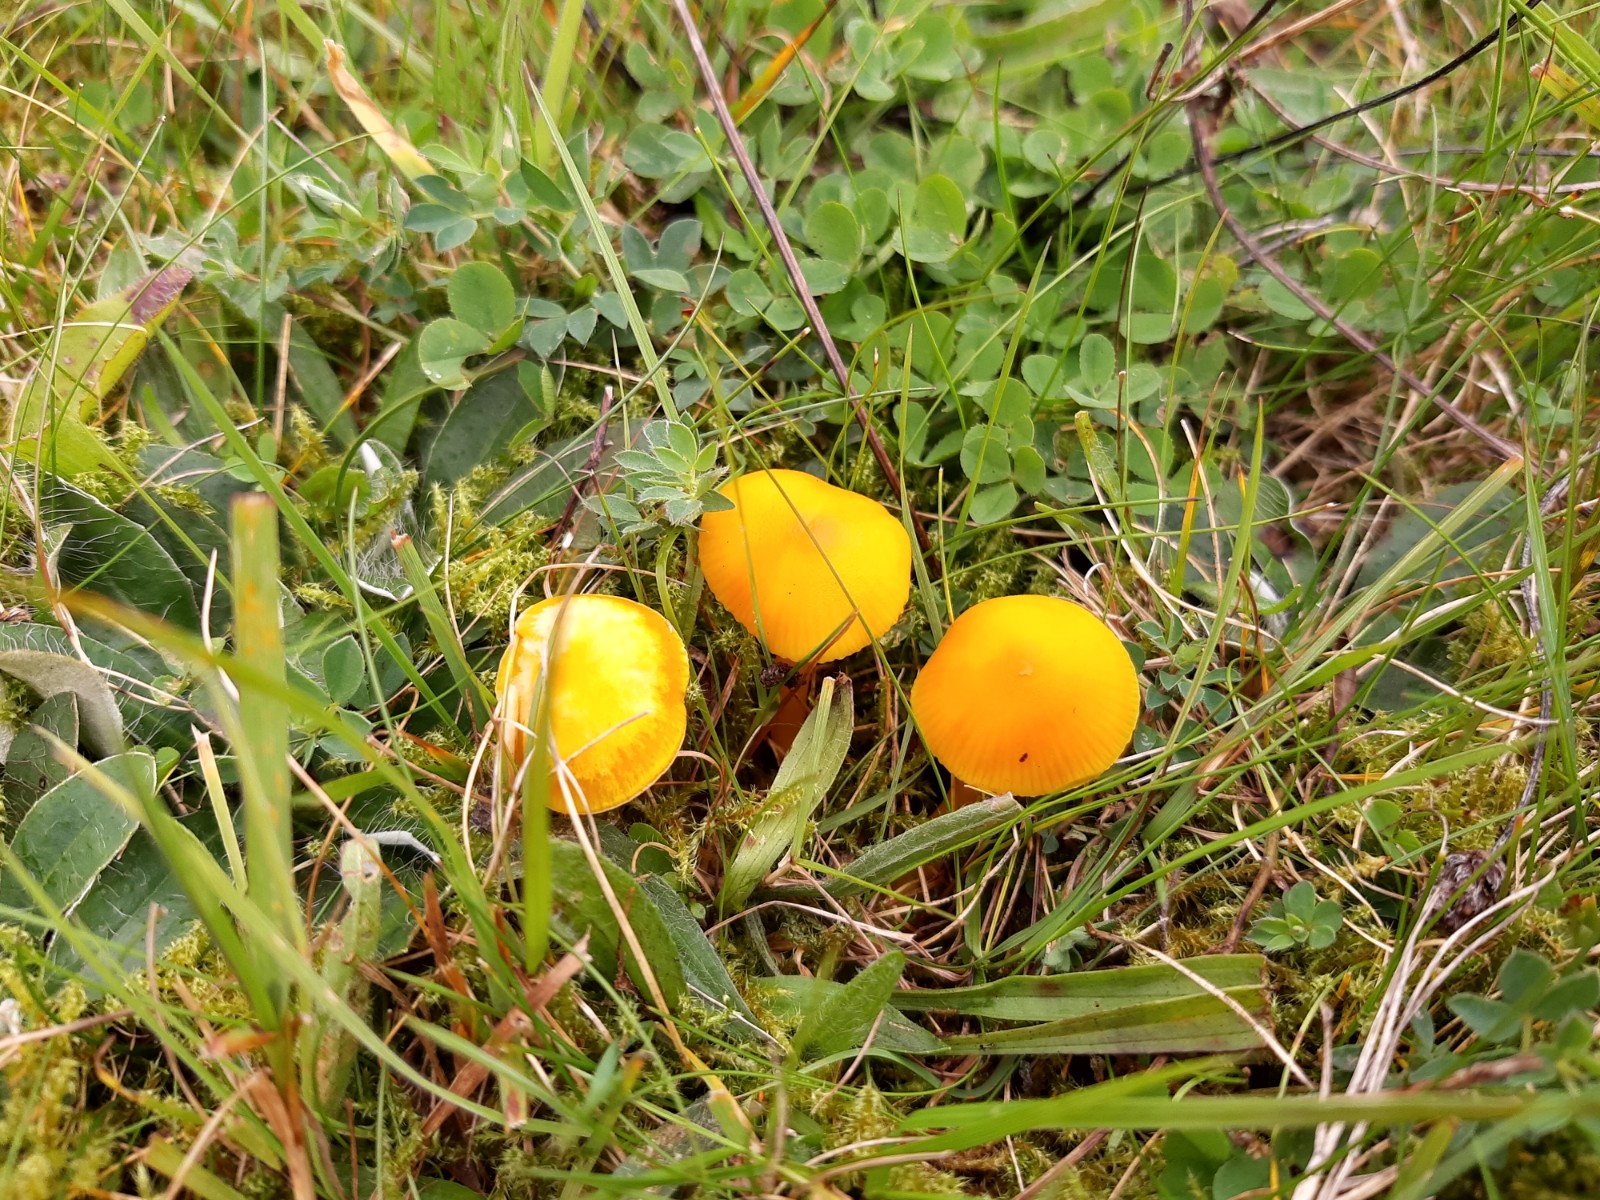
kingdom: Fungi
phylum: Basidiomycota
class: Agaricomycetes
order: Agaricales
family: Hygrophoraceae
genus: Hygrocybe
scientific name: Hygrocybe ceracea
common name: voksgul vokshat
